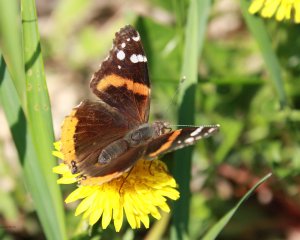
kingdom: Animalia
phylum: Arthropoda
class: Insecta
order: Lepidoptera
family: Nymphalidae
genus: Vanessa
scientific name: Vanessa atalanta
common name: Red Admiral
